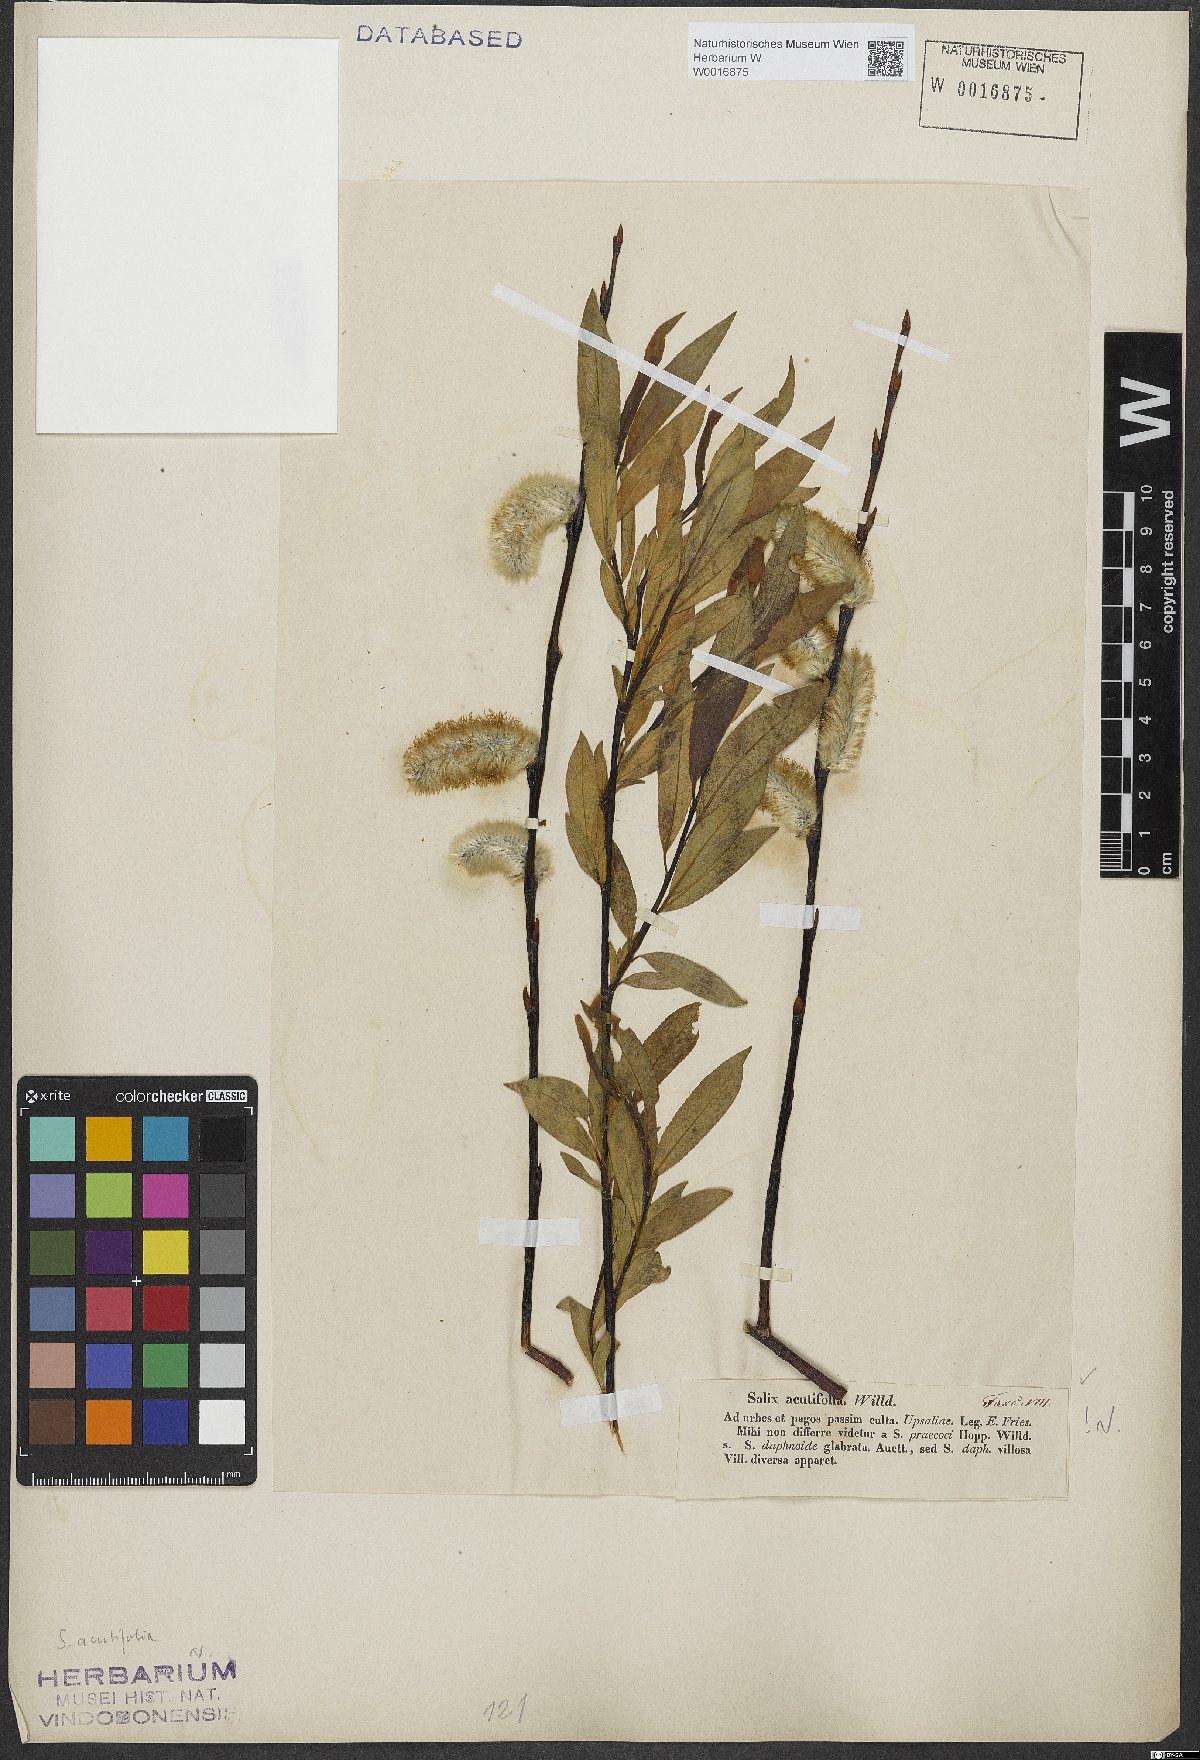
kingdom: Plantae
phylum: Tracheophyta
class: Magnoliopsida
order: Malpighiales
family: Salicaceae
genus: Salix
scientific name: Salix acutifolia
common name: Siberian violet-willow
